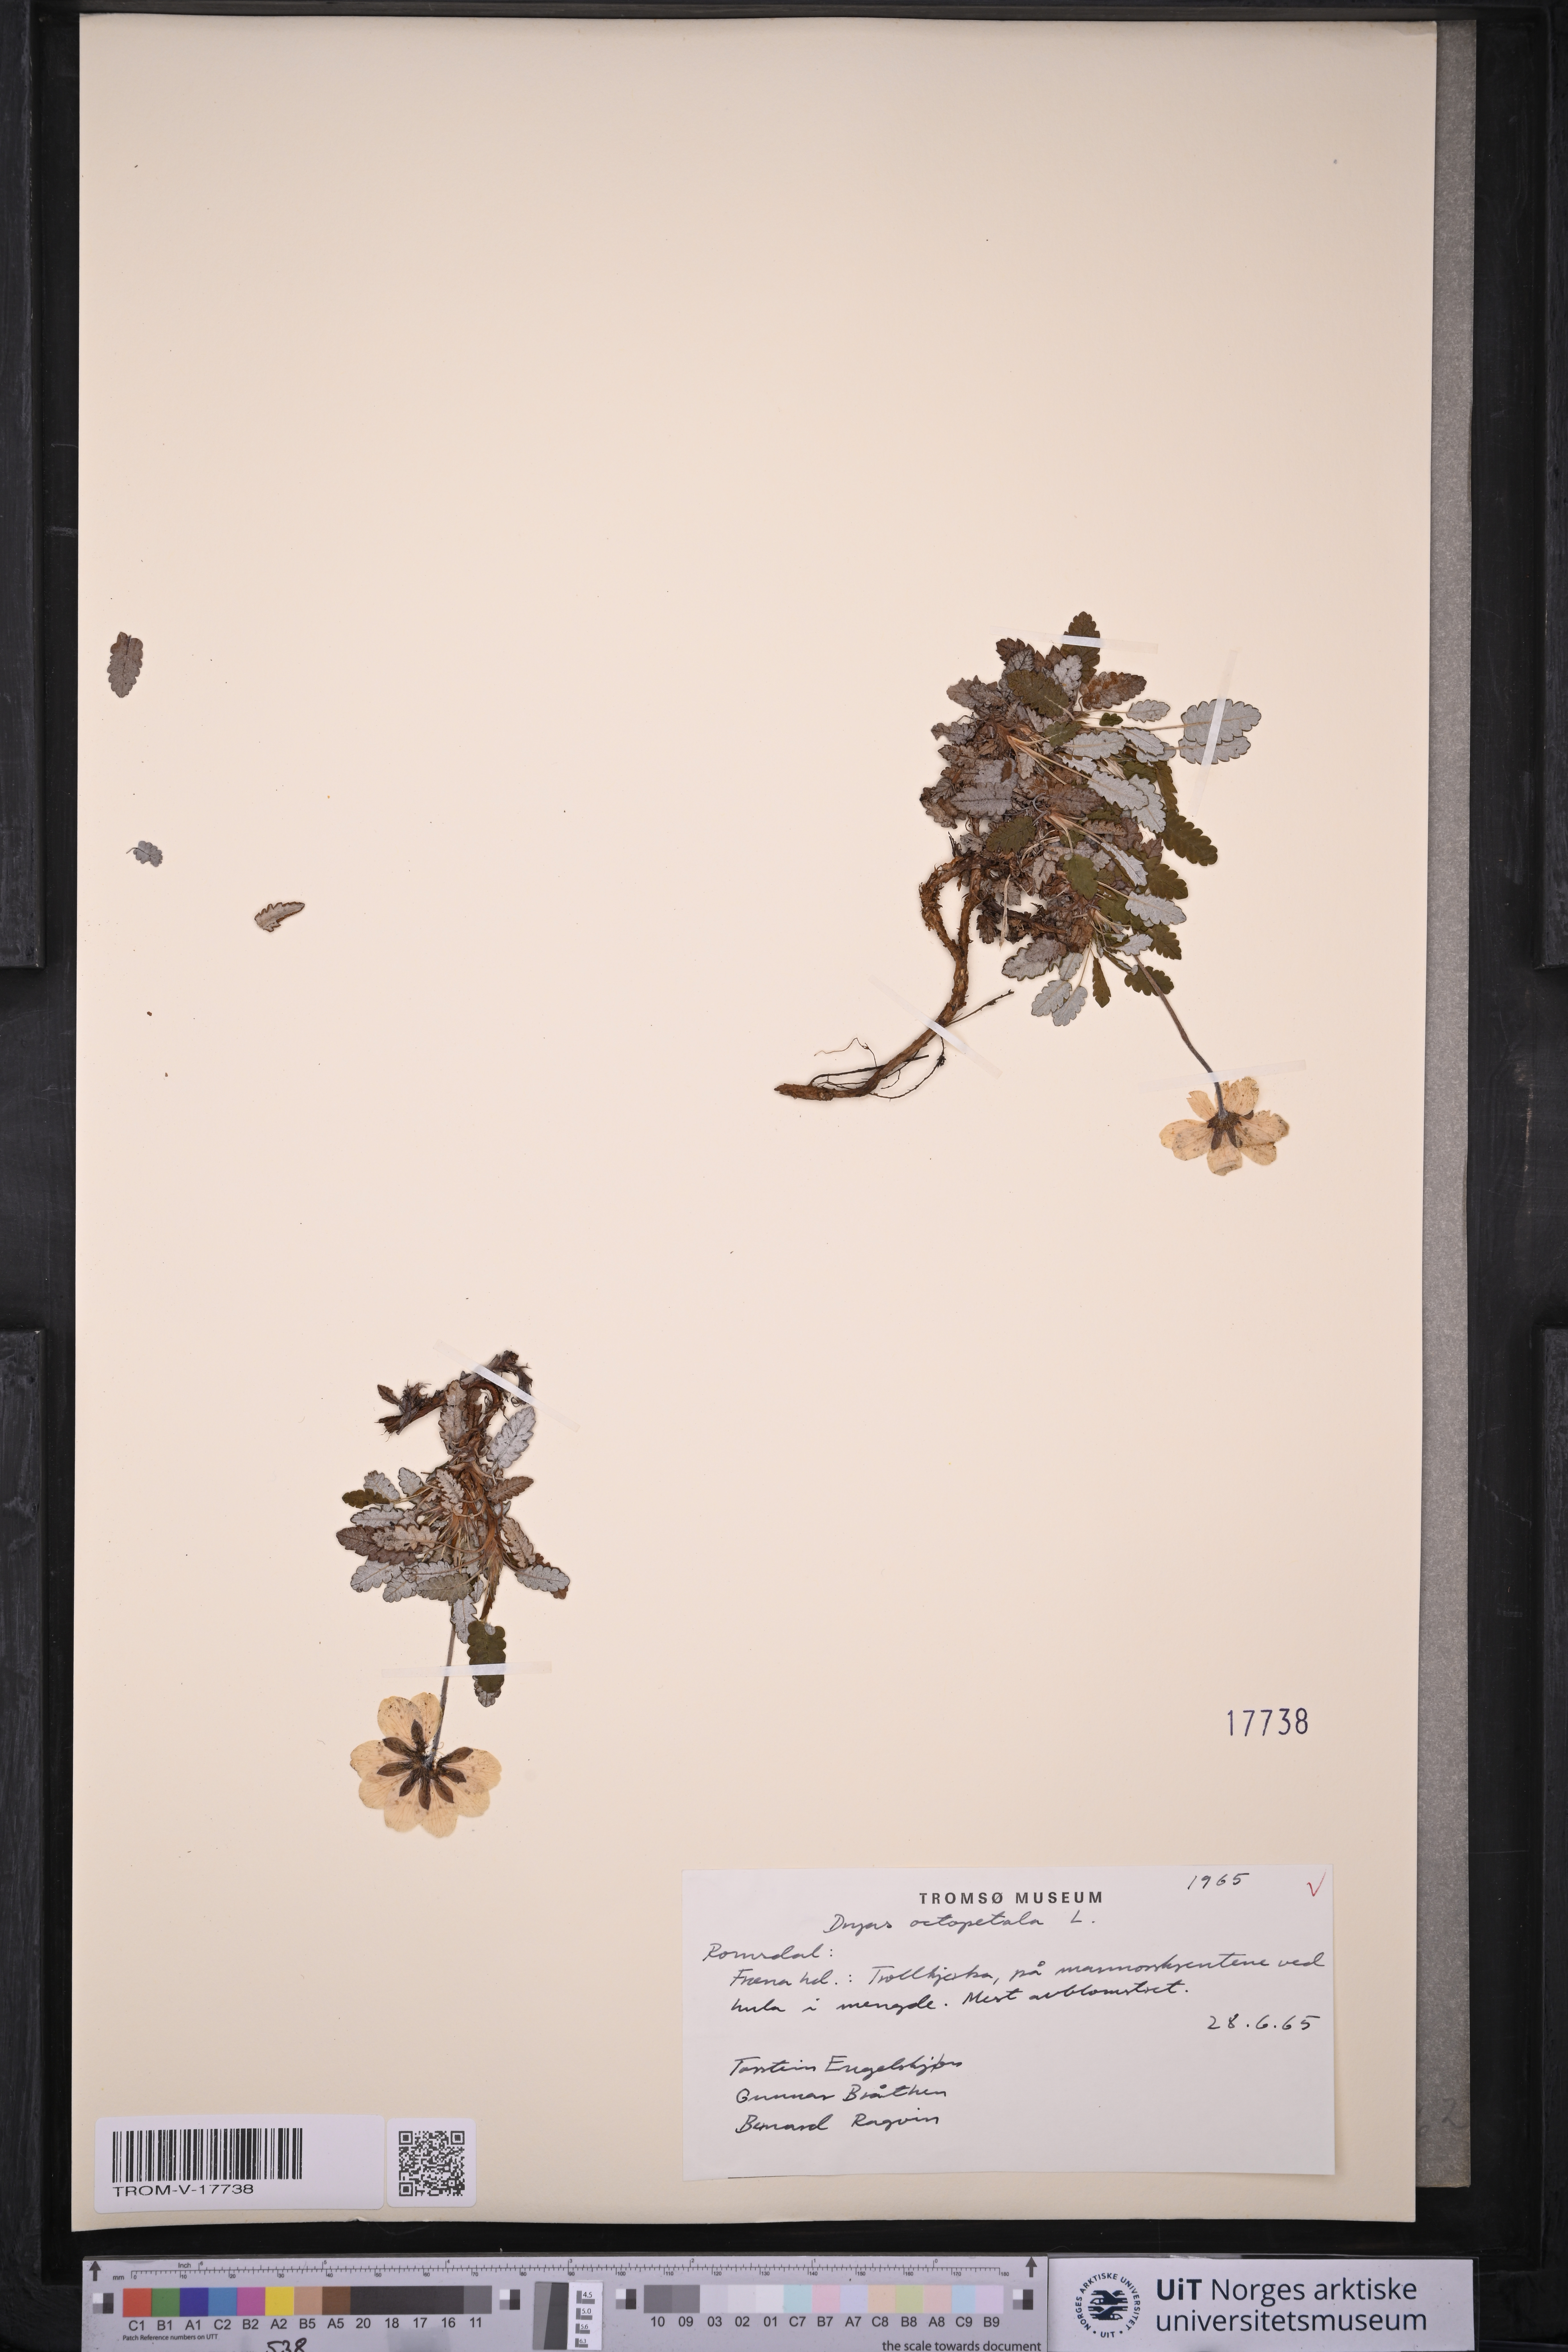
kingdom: Plantae
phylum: Tracheophyta
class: Magnoliopsida
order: Rosales
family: Rosaceae
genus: Dryas
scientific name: Dryas octopetala
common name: Eight-petal mountain-avens
